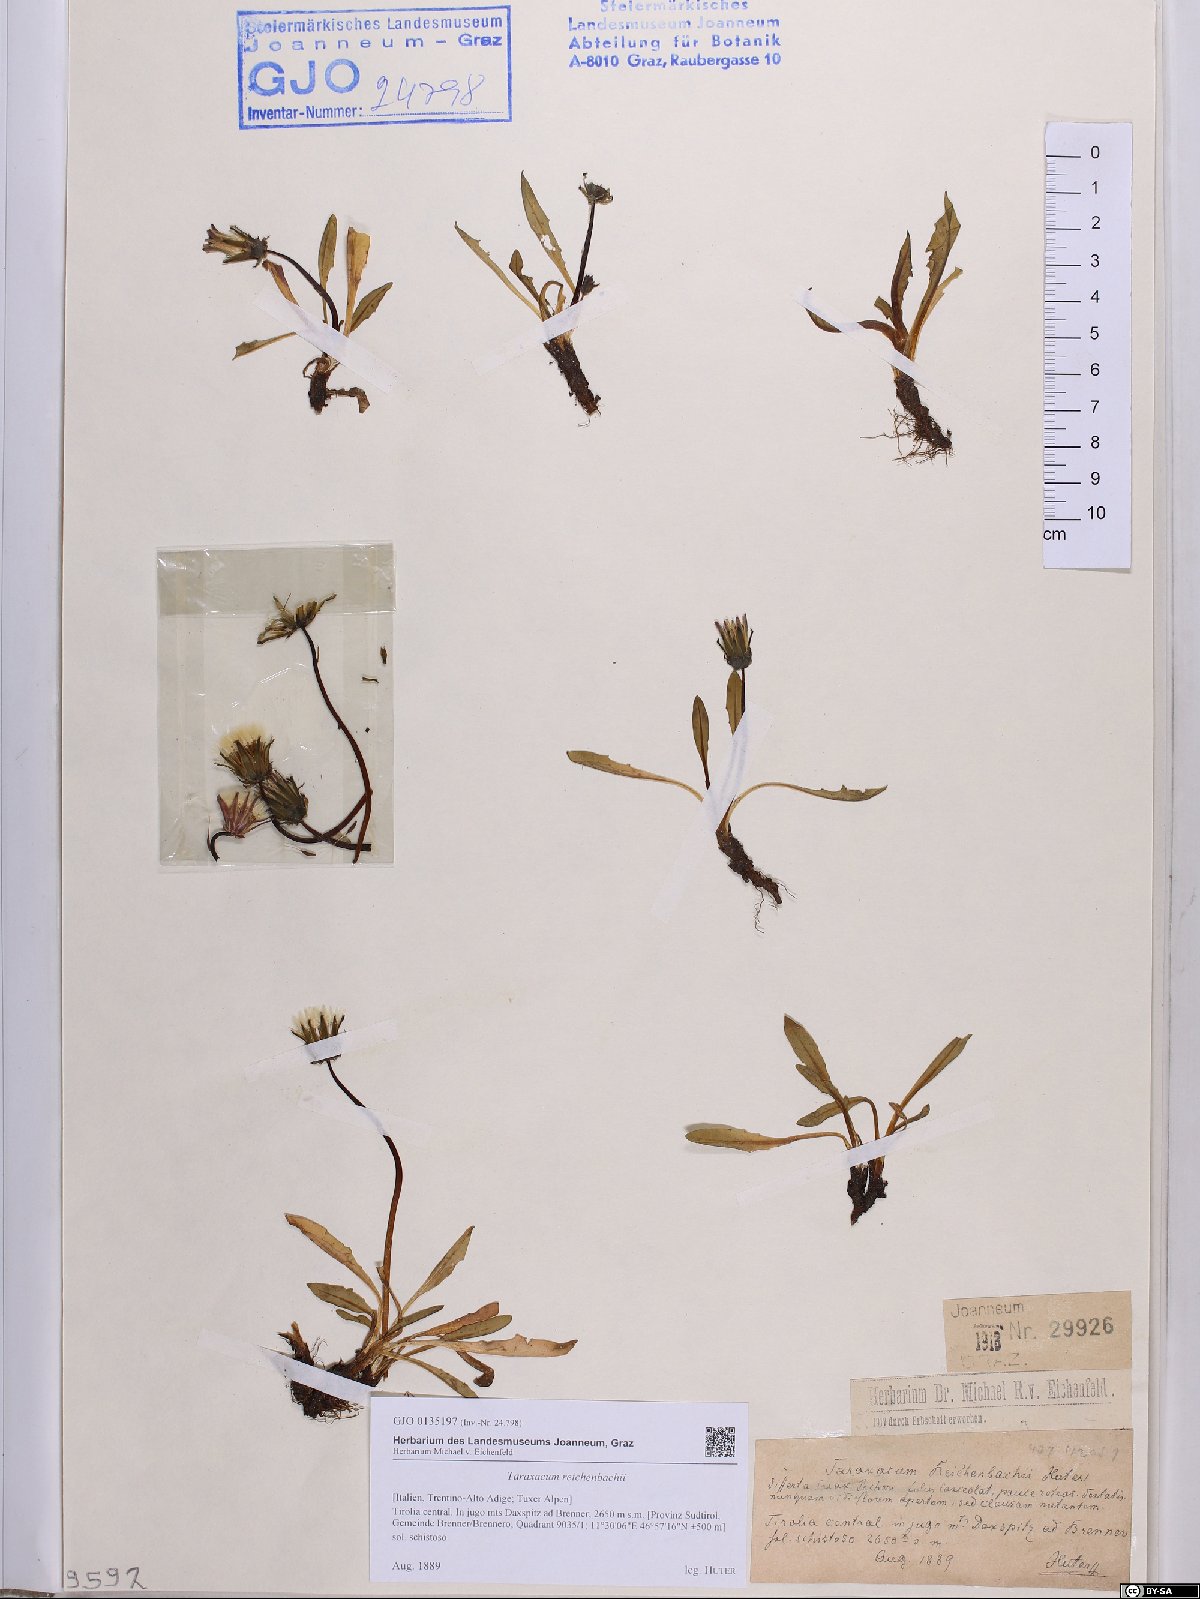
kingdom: Plantae
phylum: Tracheophyta
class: Magnoliopsida
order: Asterales
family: Asteraceae
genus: Taraxacum
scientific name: Taraxacum reichenbachii
